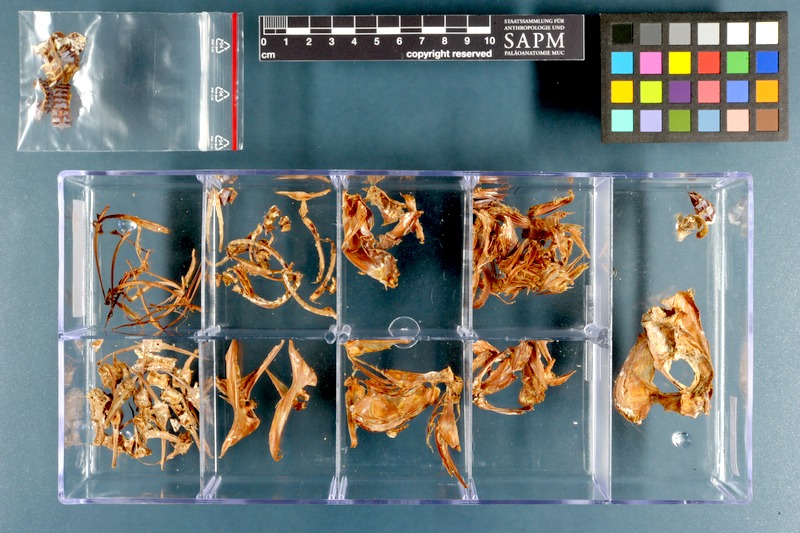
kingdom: Animalia
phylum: Chordata
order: Perciformes
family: Carangidae
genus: Caranx
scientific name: Caranx ignobilis
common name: Giant trevally
